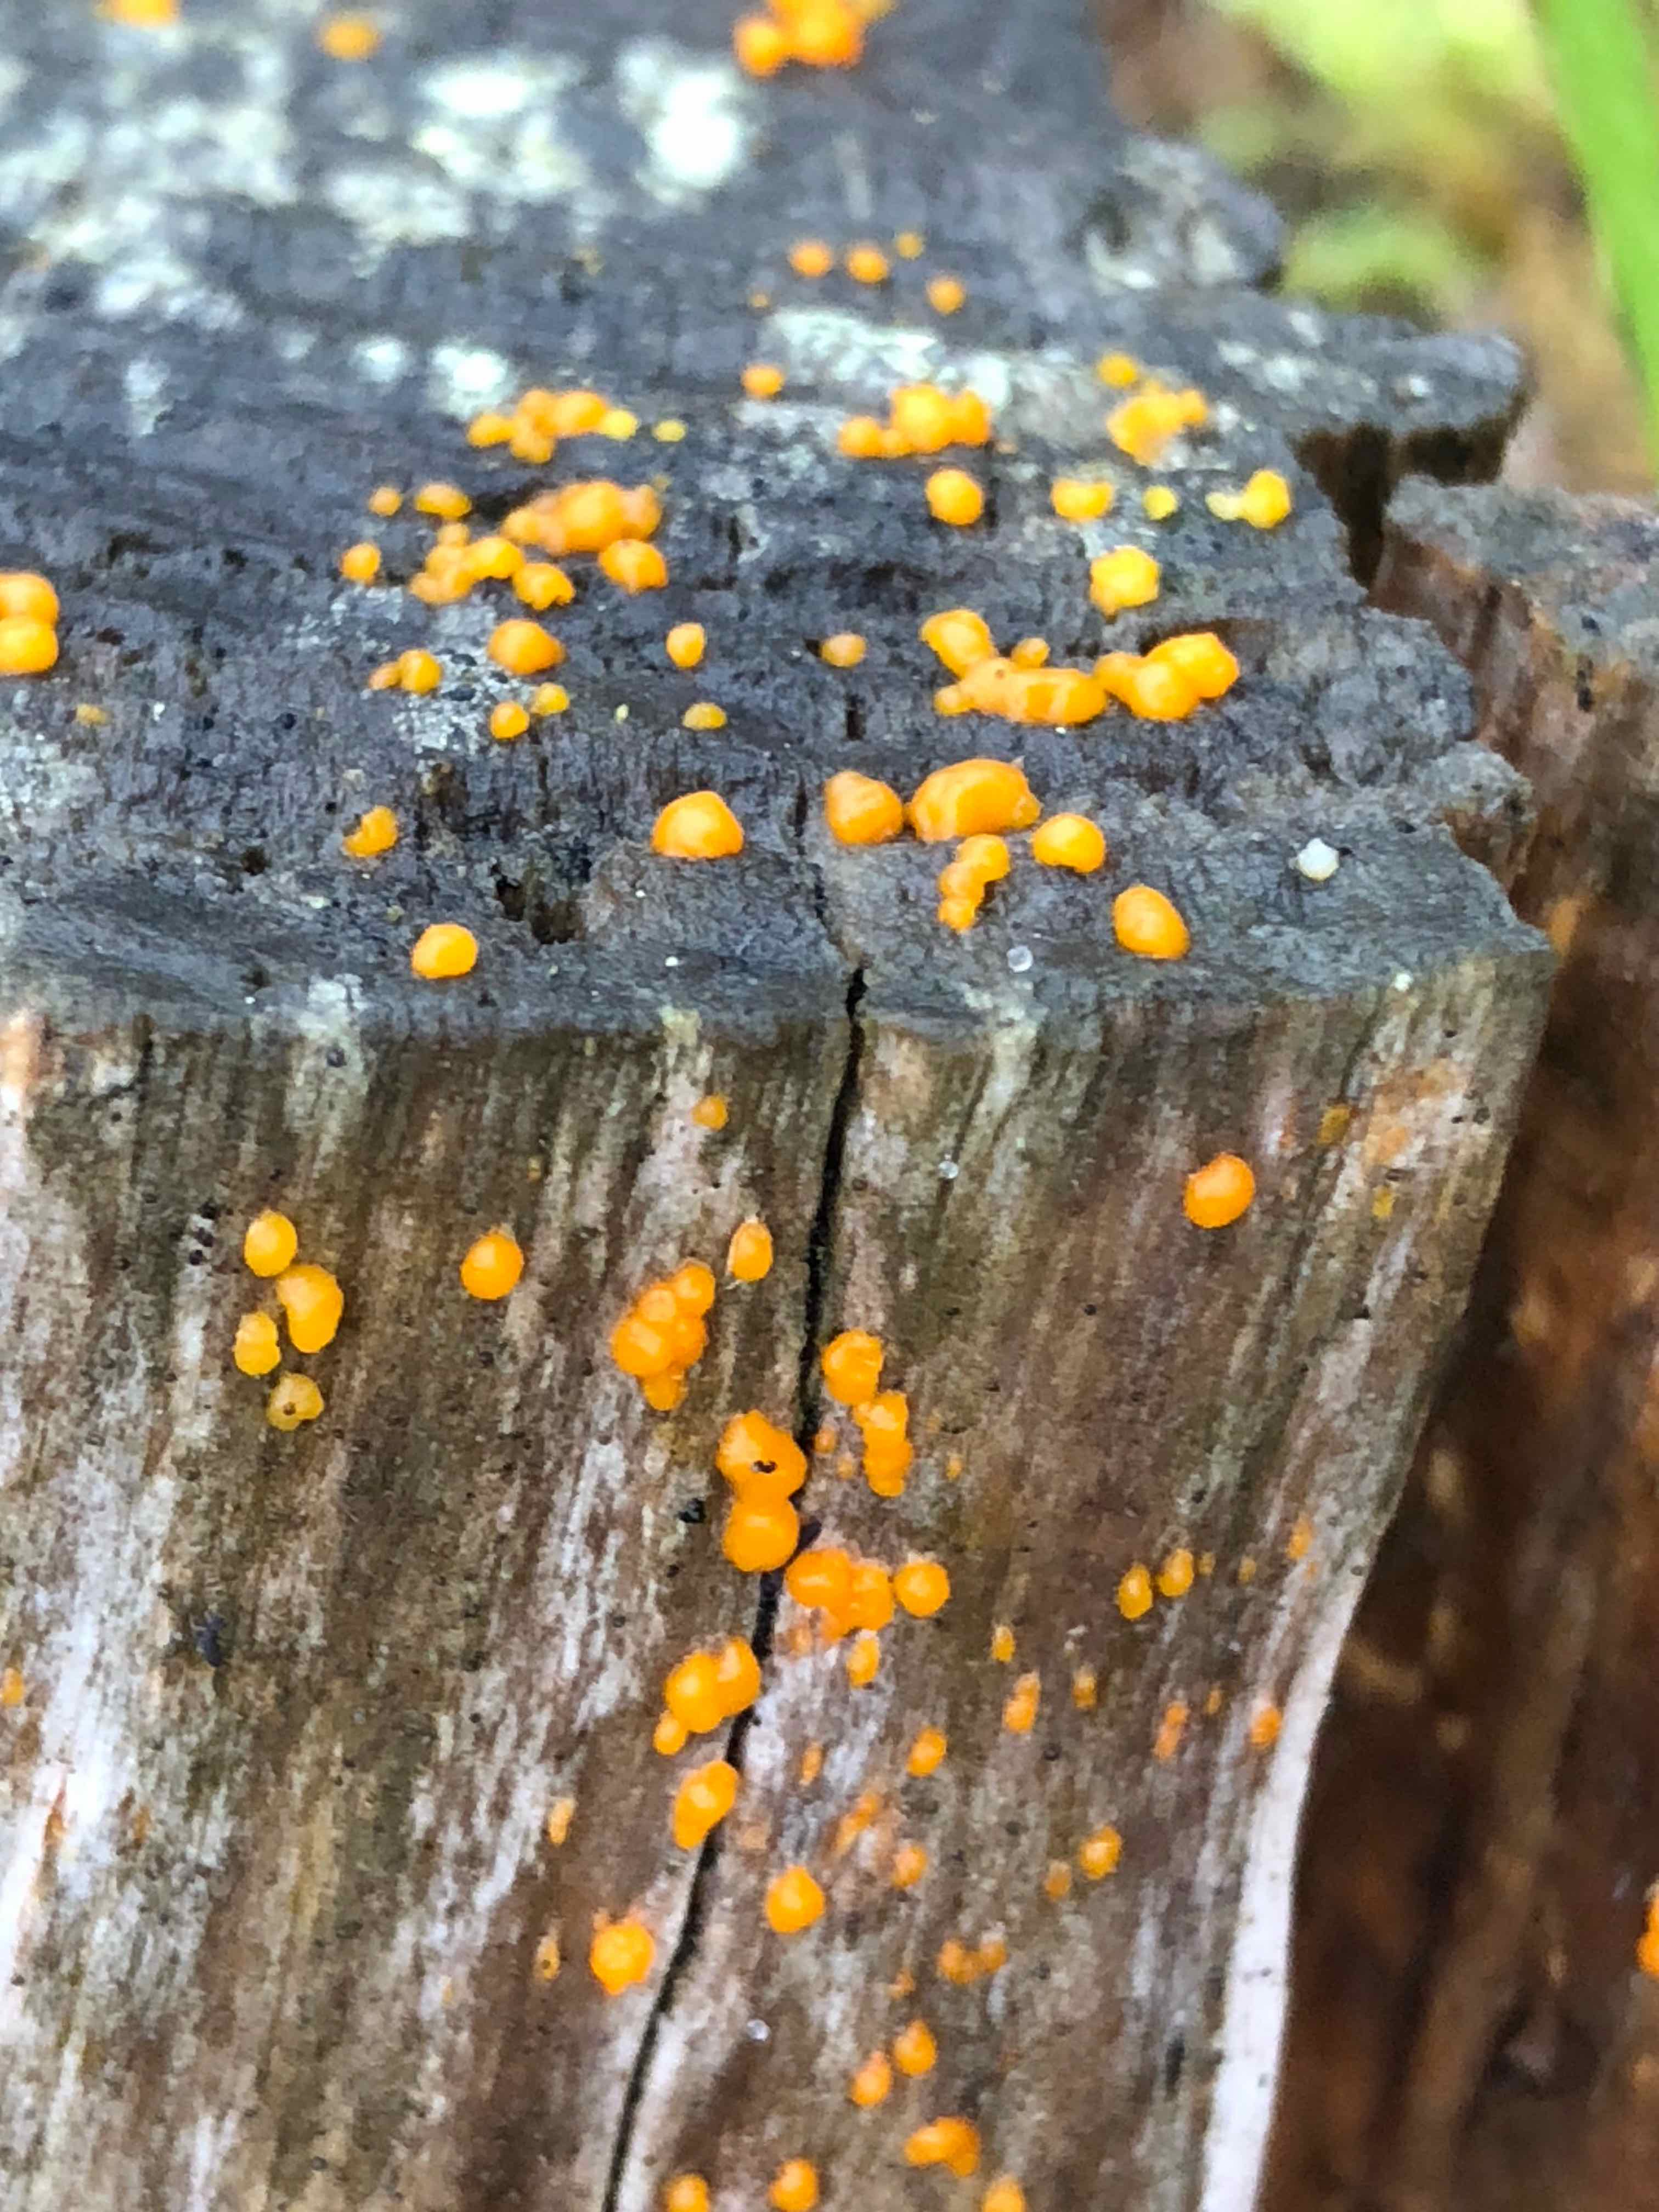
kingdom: Fungi
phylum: Basidiomycota
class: Dacrymycetes
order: Dacrymycetales
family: Dacrymycetaceae
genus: Dacrymyces
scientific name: Dacrymyces stillatus
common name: almindelig tåresvamp
